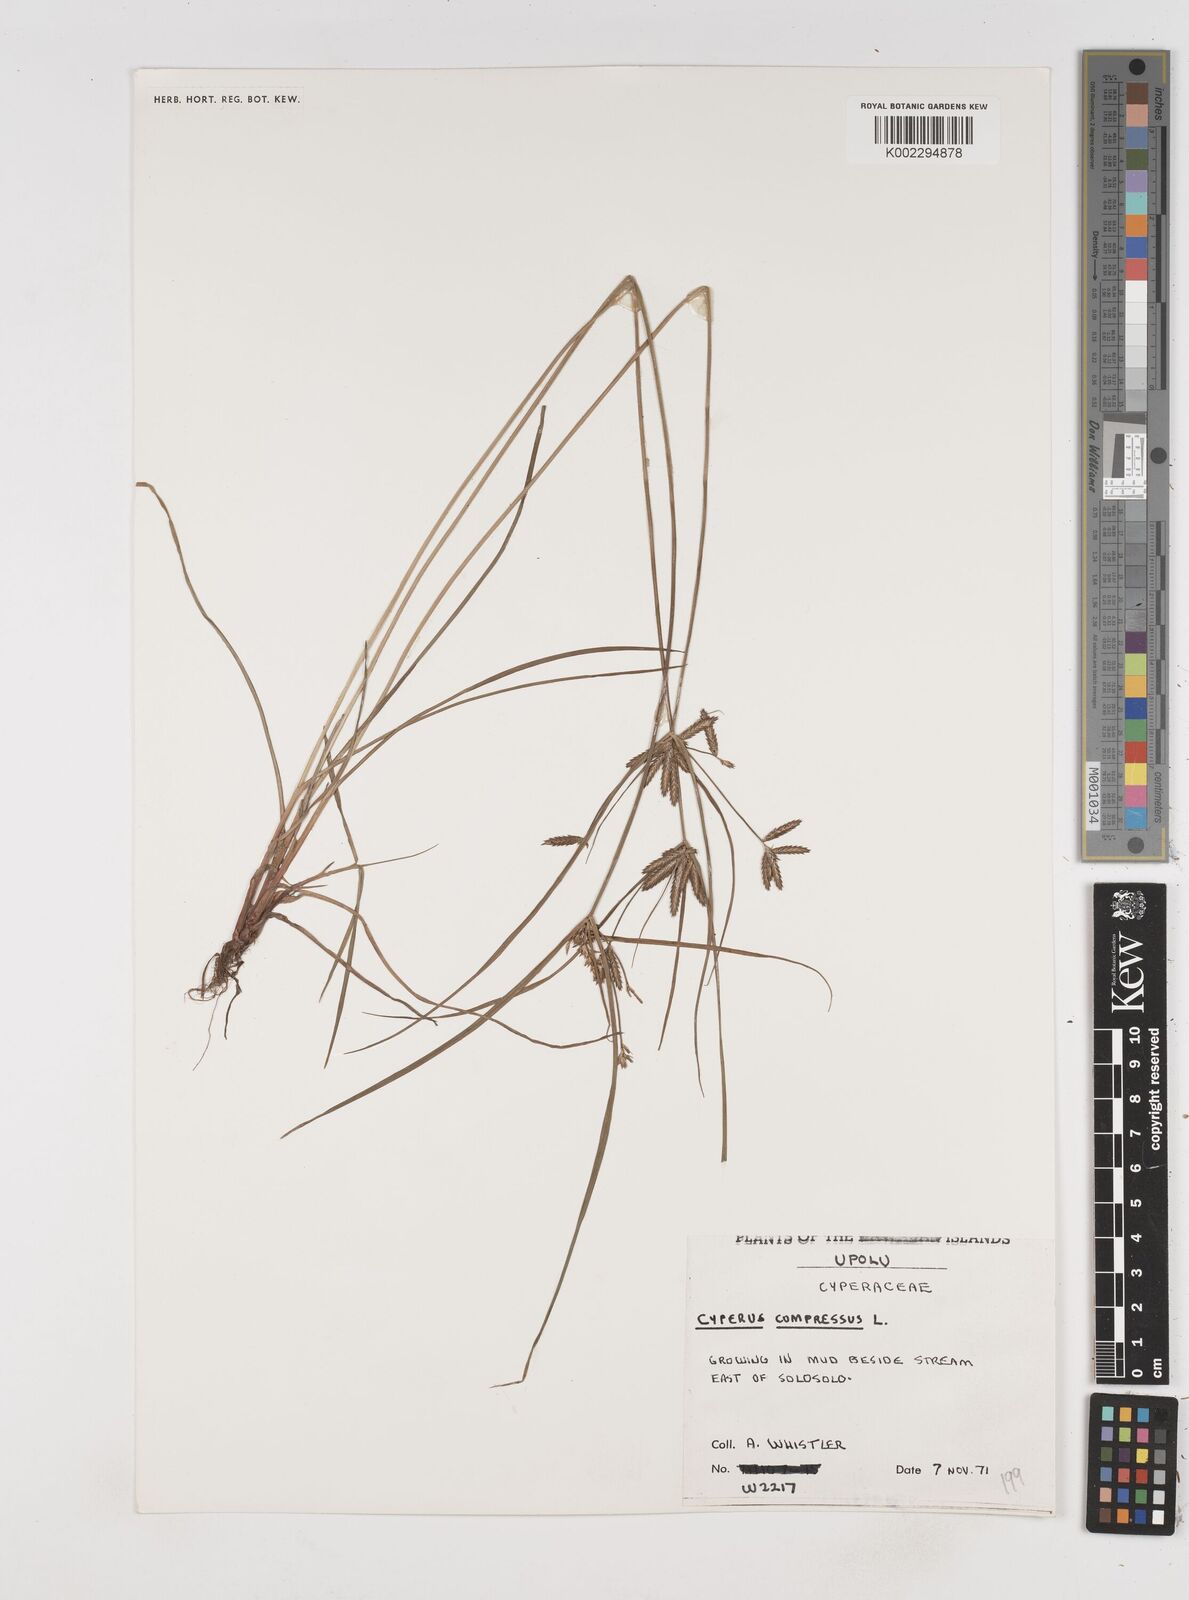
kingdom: Plantae
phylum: Tracheophyta
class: Liliopsida
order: Poales
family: Cyperaceae
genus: Cyperus
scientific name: Cyperus compressus
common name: Poorland flatsedge
